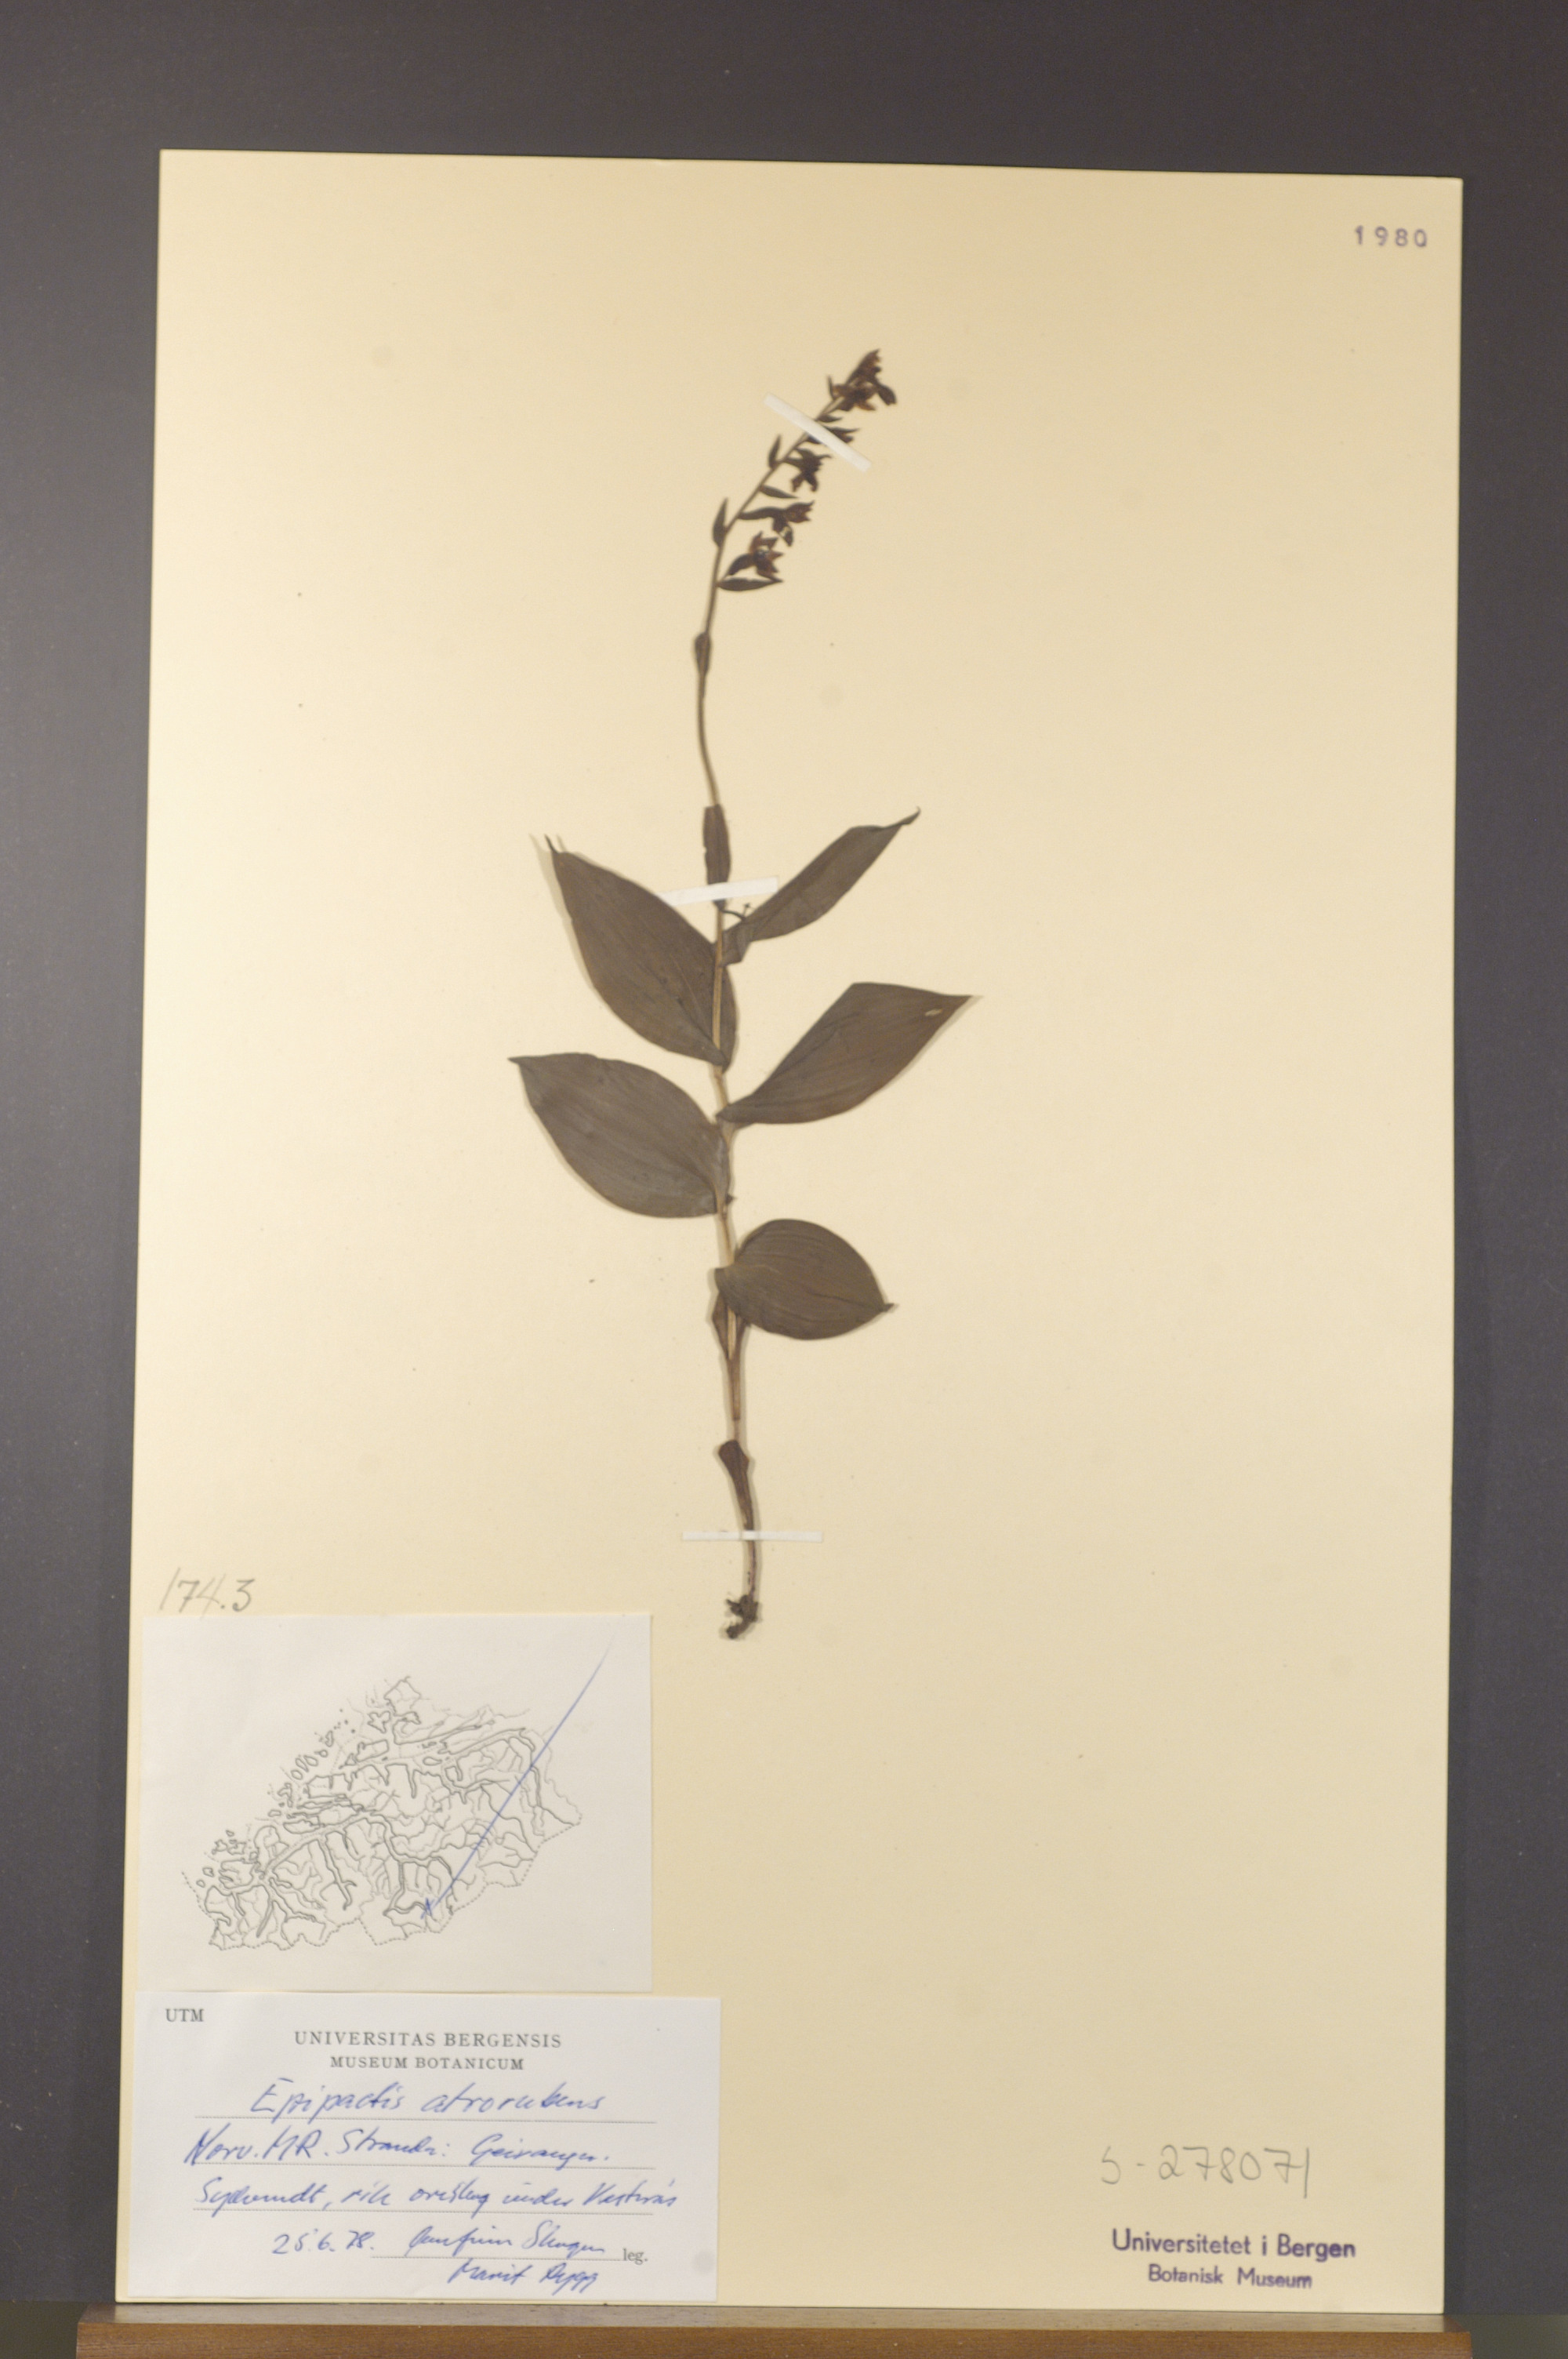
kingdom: Plantae
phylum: Tracheophyta
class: Liliopsida
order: Asparagales
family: Orchidaceae
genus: Epipactis
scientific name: Epipactis atrorubens
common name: Dark-red helleborine
